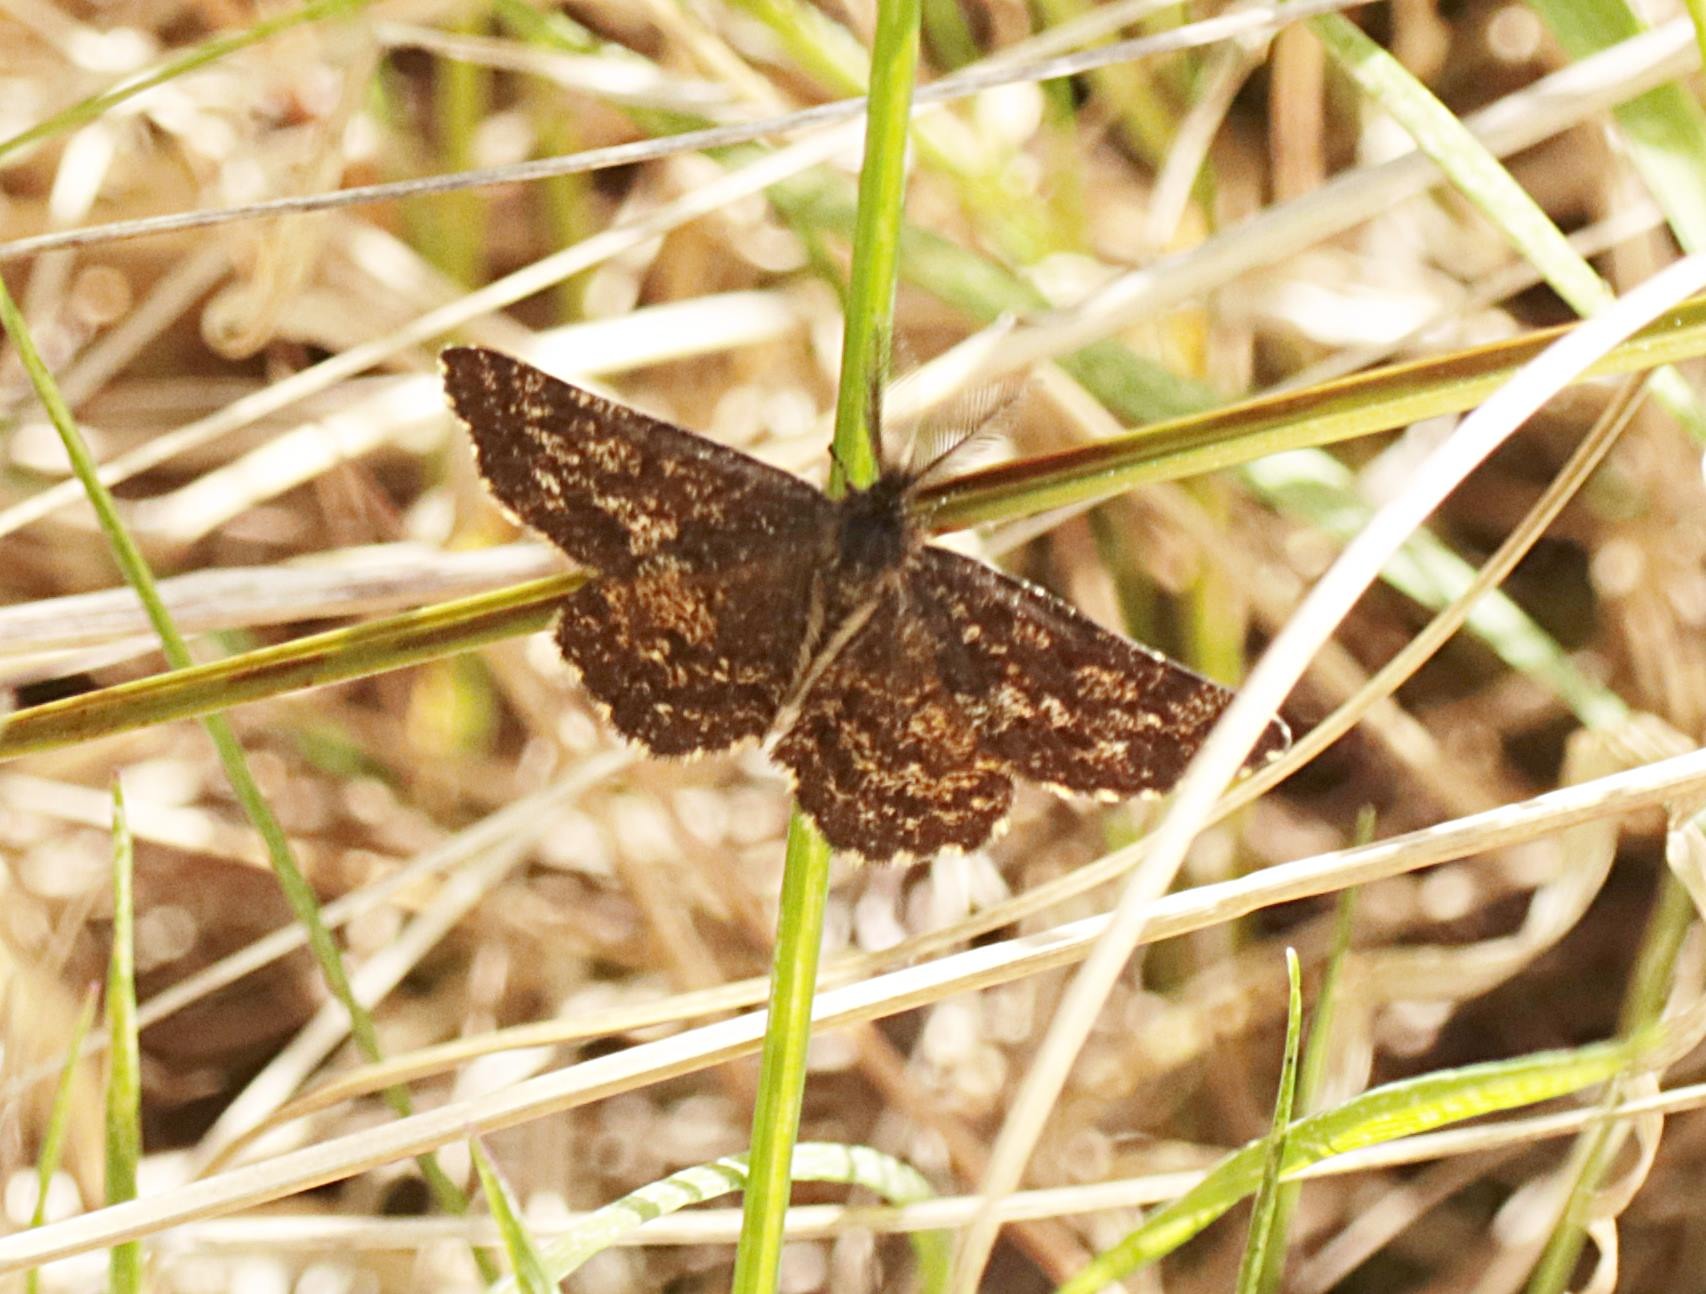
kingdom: Animalia
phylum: Arthropoda
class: Insecta
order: Lepidoptera
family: Geometridae
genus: Ematurga
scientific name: Ematurga atomaria
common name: Lyngmåler
